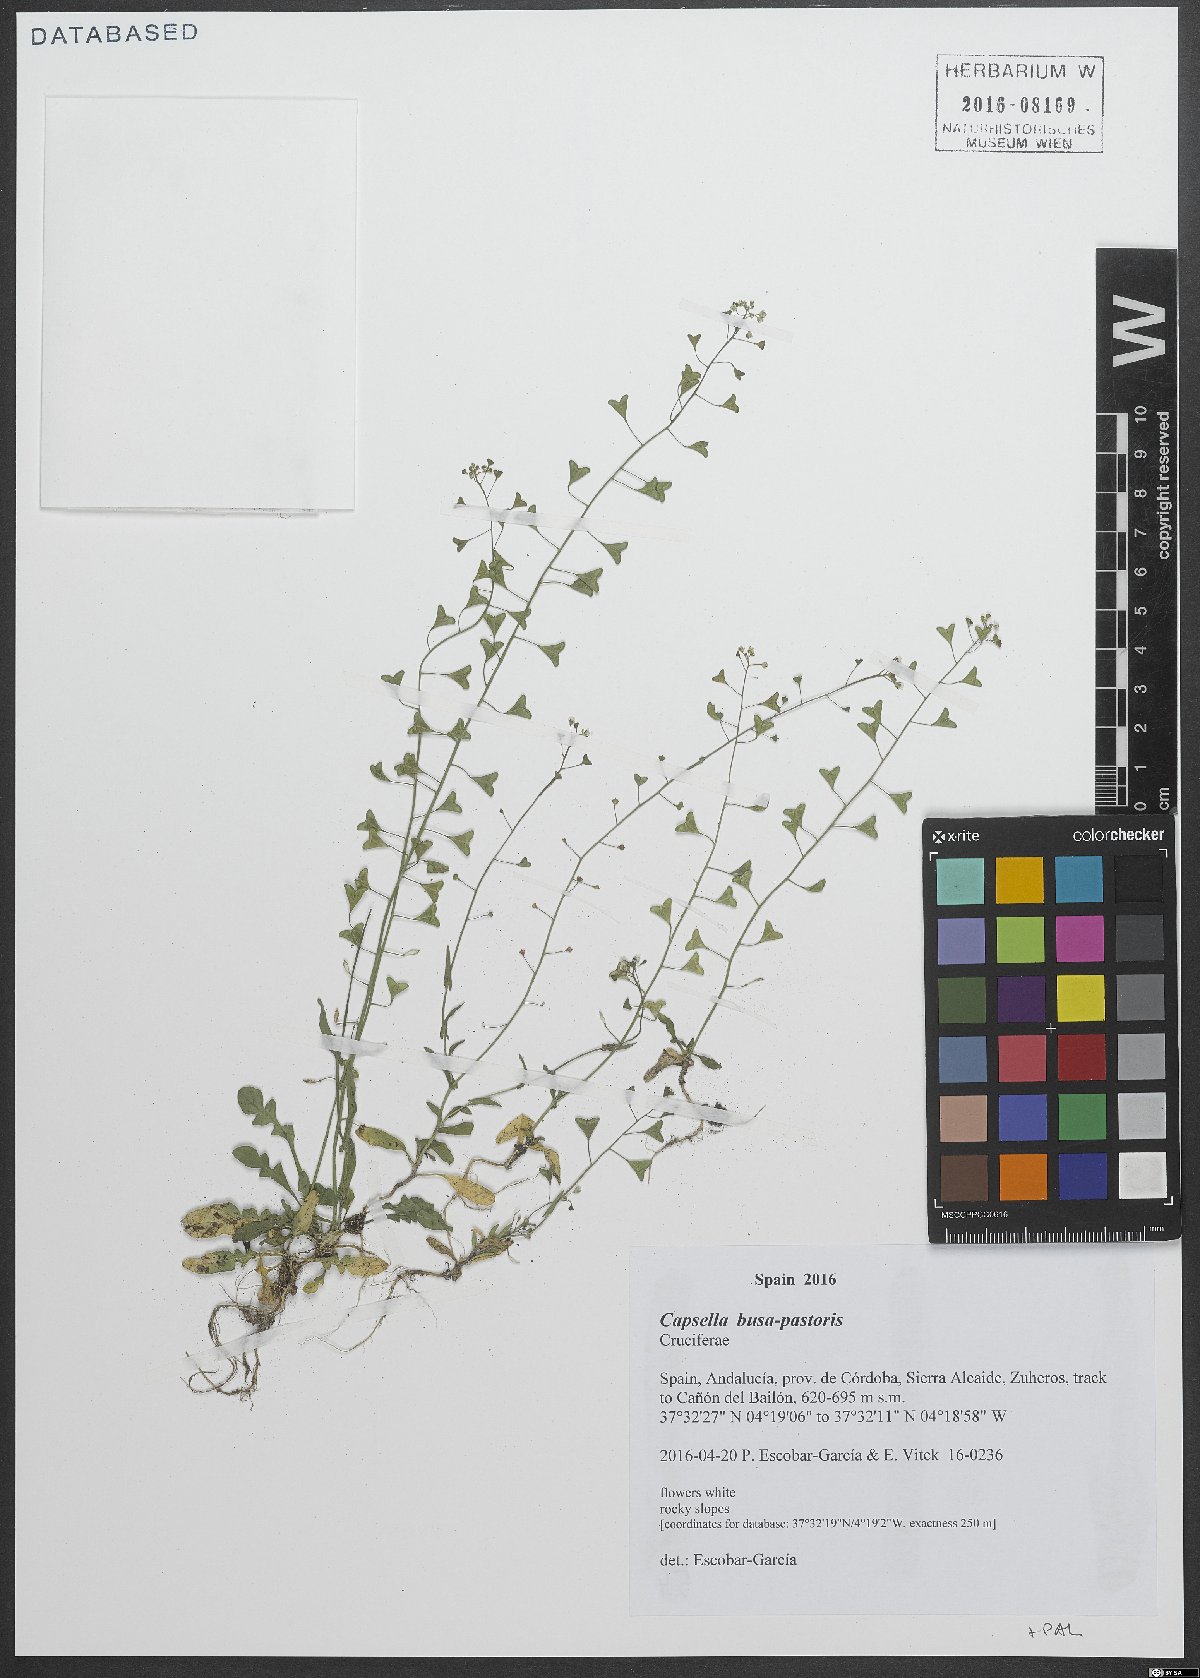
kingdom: Plantae
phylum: Tracheophyta
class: Magnoliopsida
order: Brassicales
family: Brassicaceae
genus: Capsella
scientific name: Capsella bursa-pastoris
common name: Shepherd's purse
